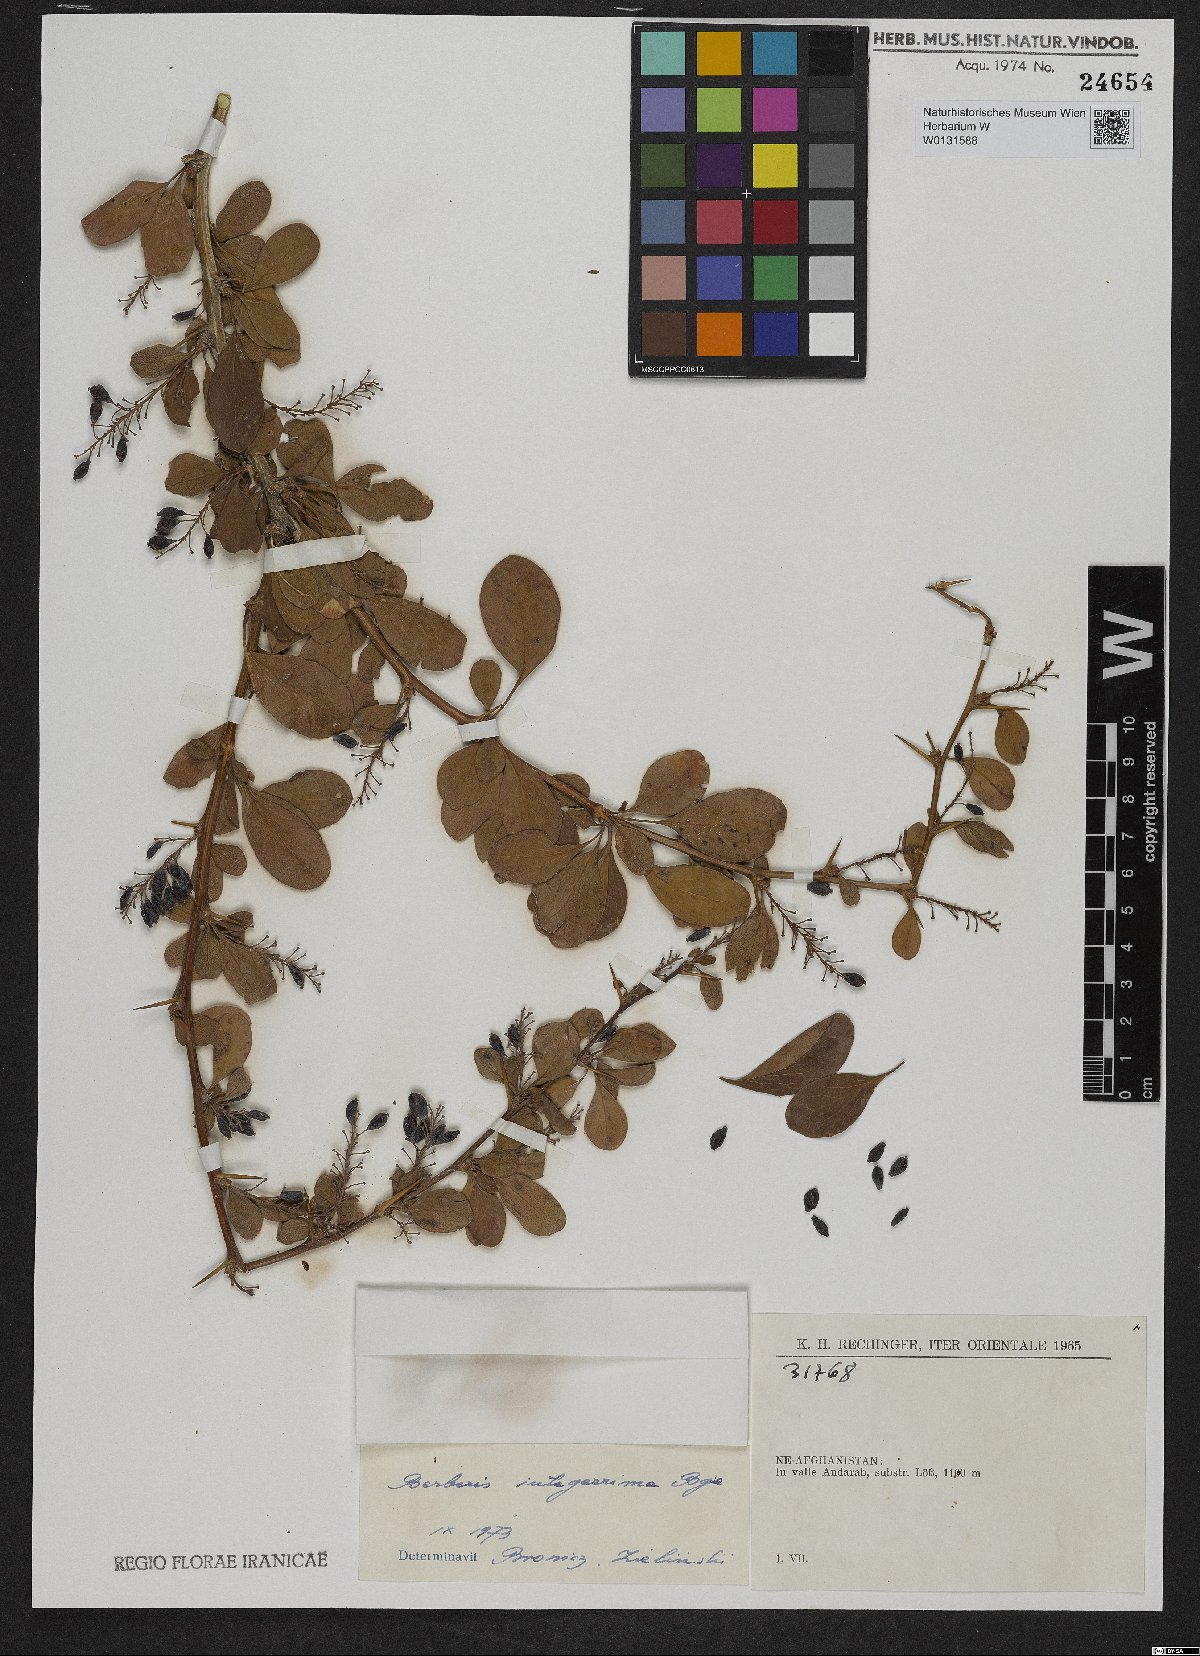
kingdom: Plantae
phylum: Tracheophyta
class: Magnoliopsida
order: Ranunculales
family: Berberidaceae
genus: Berberis
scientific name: Berberis integerrima
